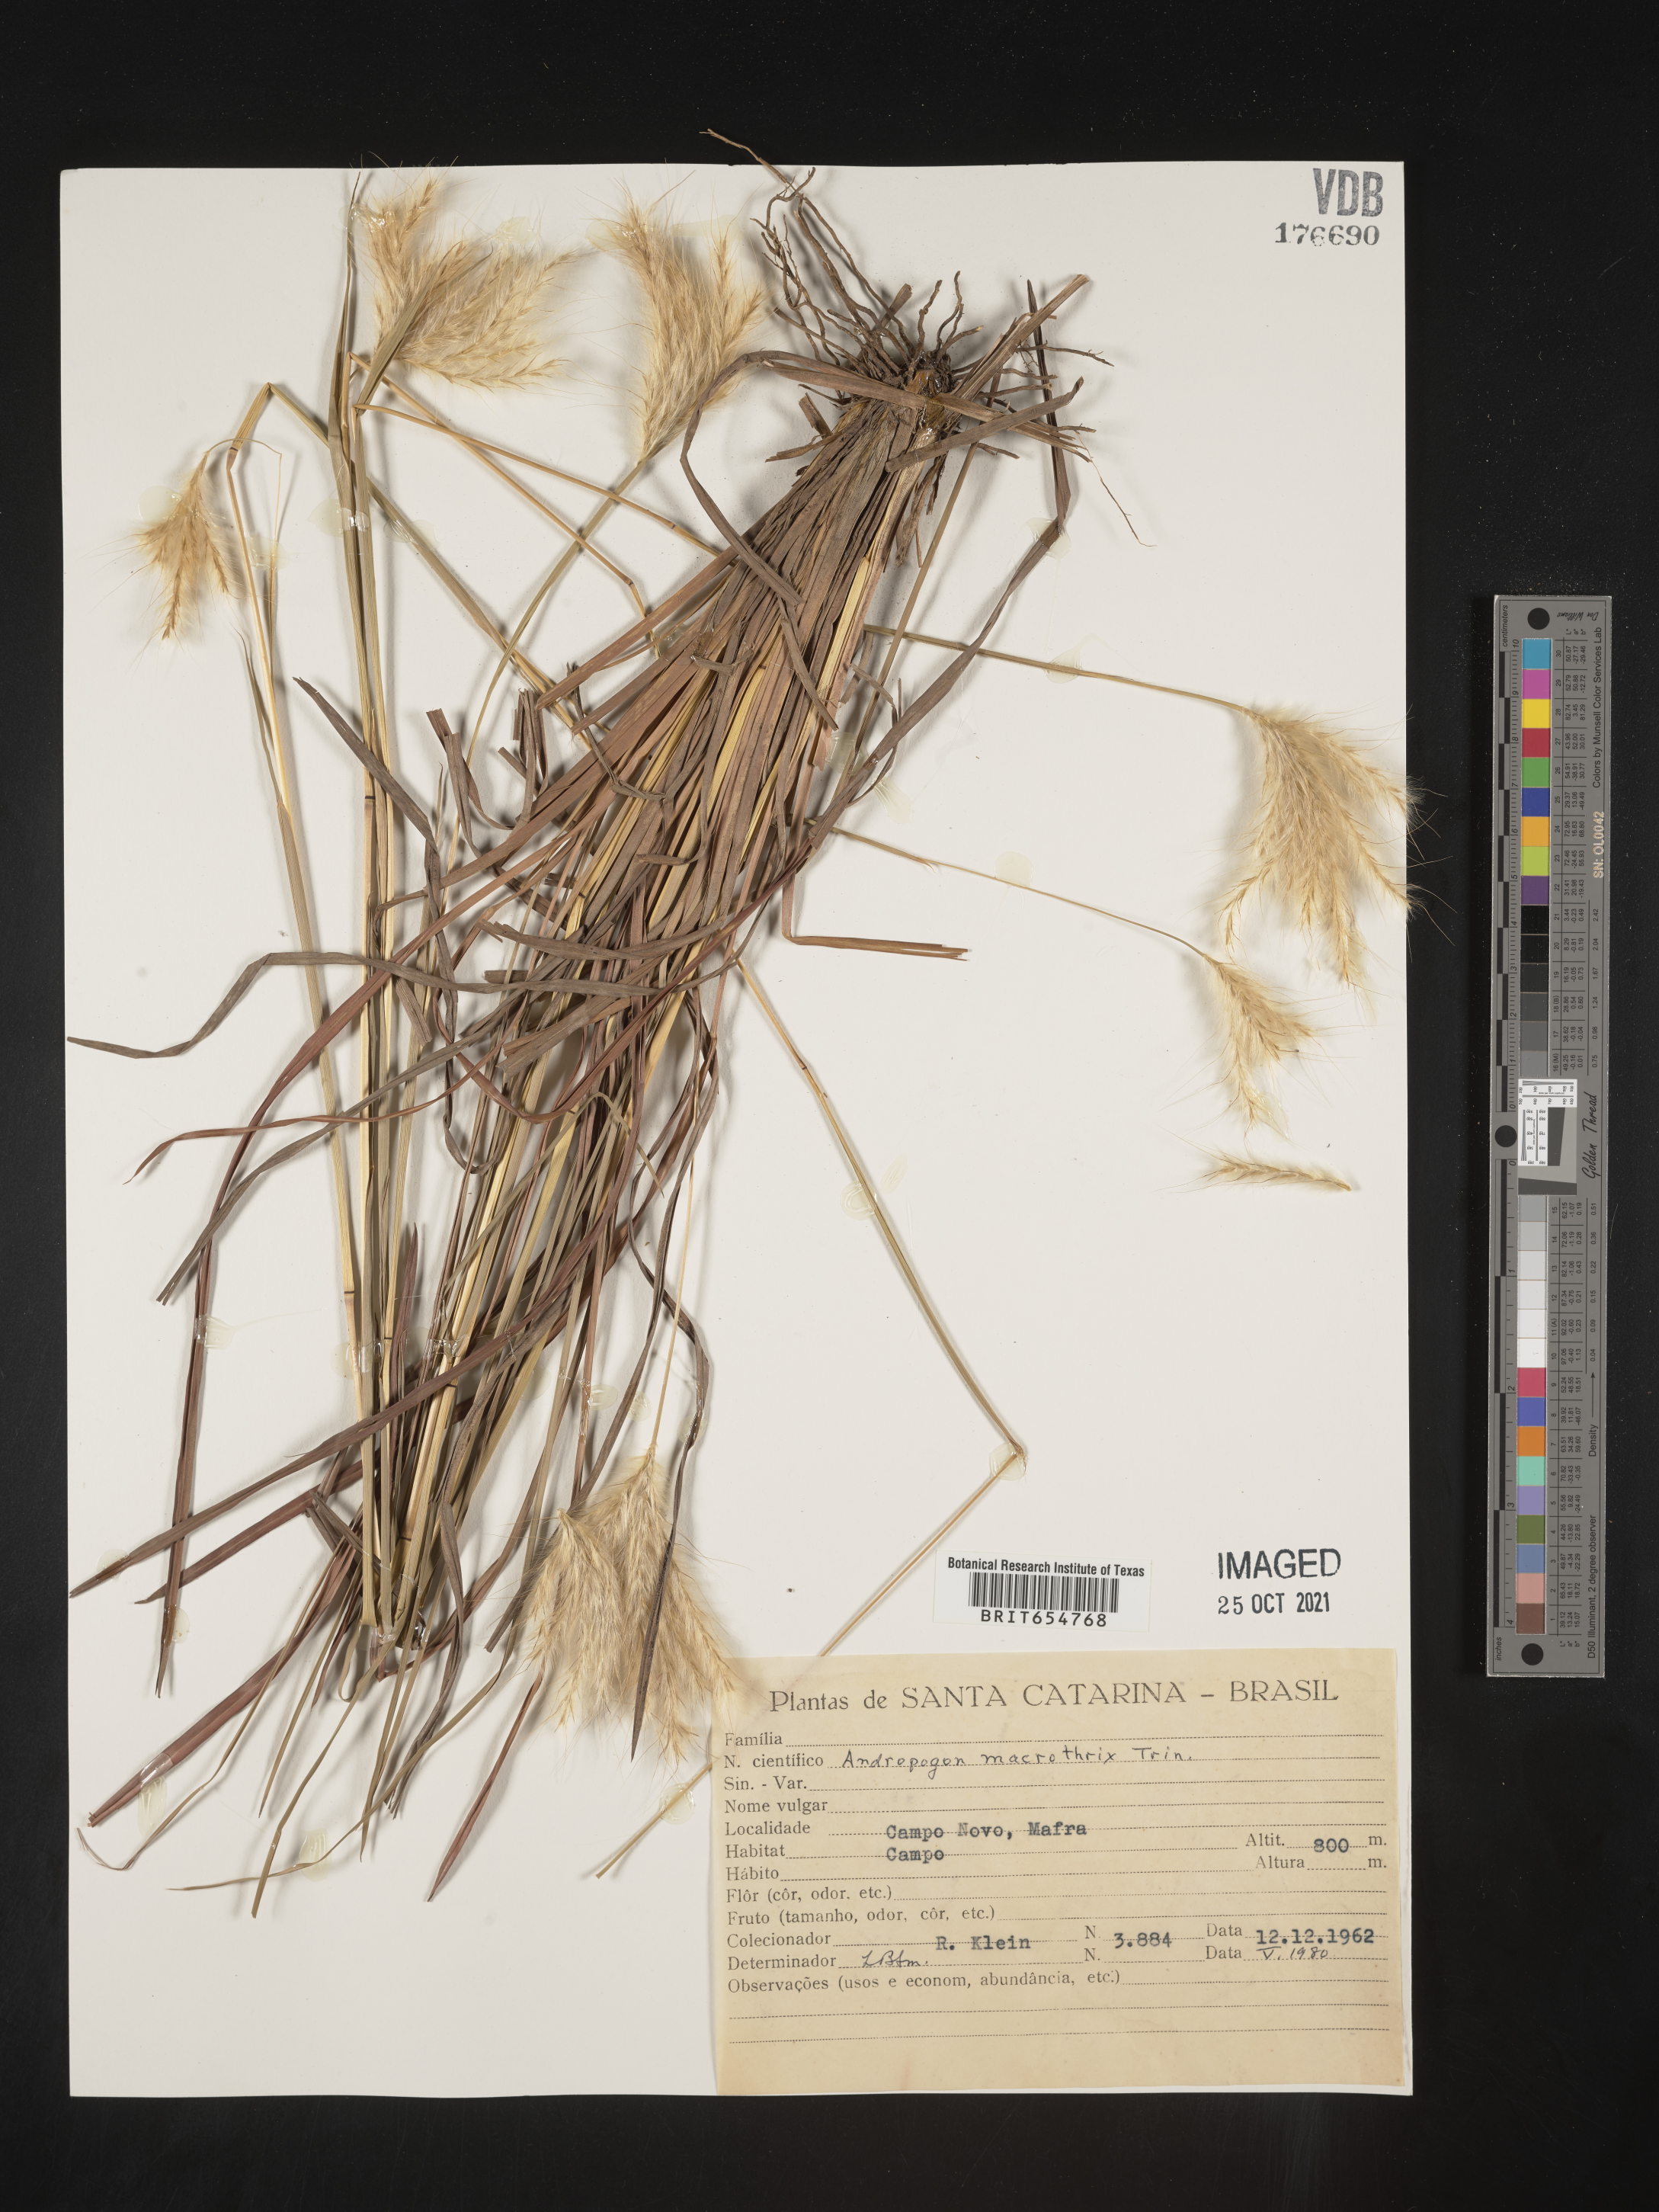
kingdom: Plantae
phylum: Tracheophyta
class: Liliopsida
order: Poales
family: Poaceae
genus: Andropogon
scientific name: Andropogon
